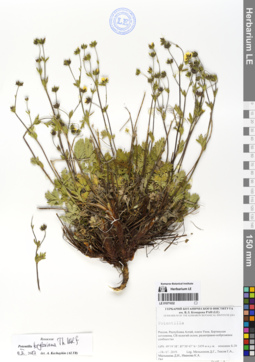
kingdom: Plantae
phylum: Tracheophyta
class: Magnoliopsida
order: Rosales
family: Rosaceae
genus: Potentilla
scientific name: Potentilla kryloviana
